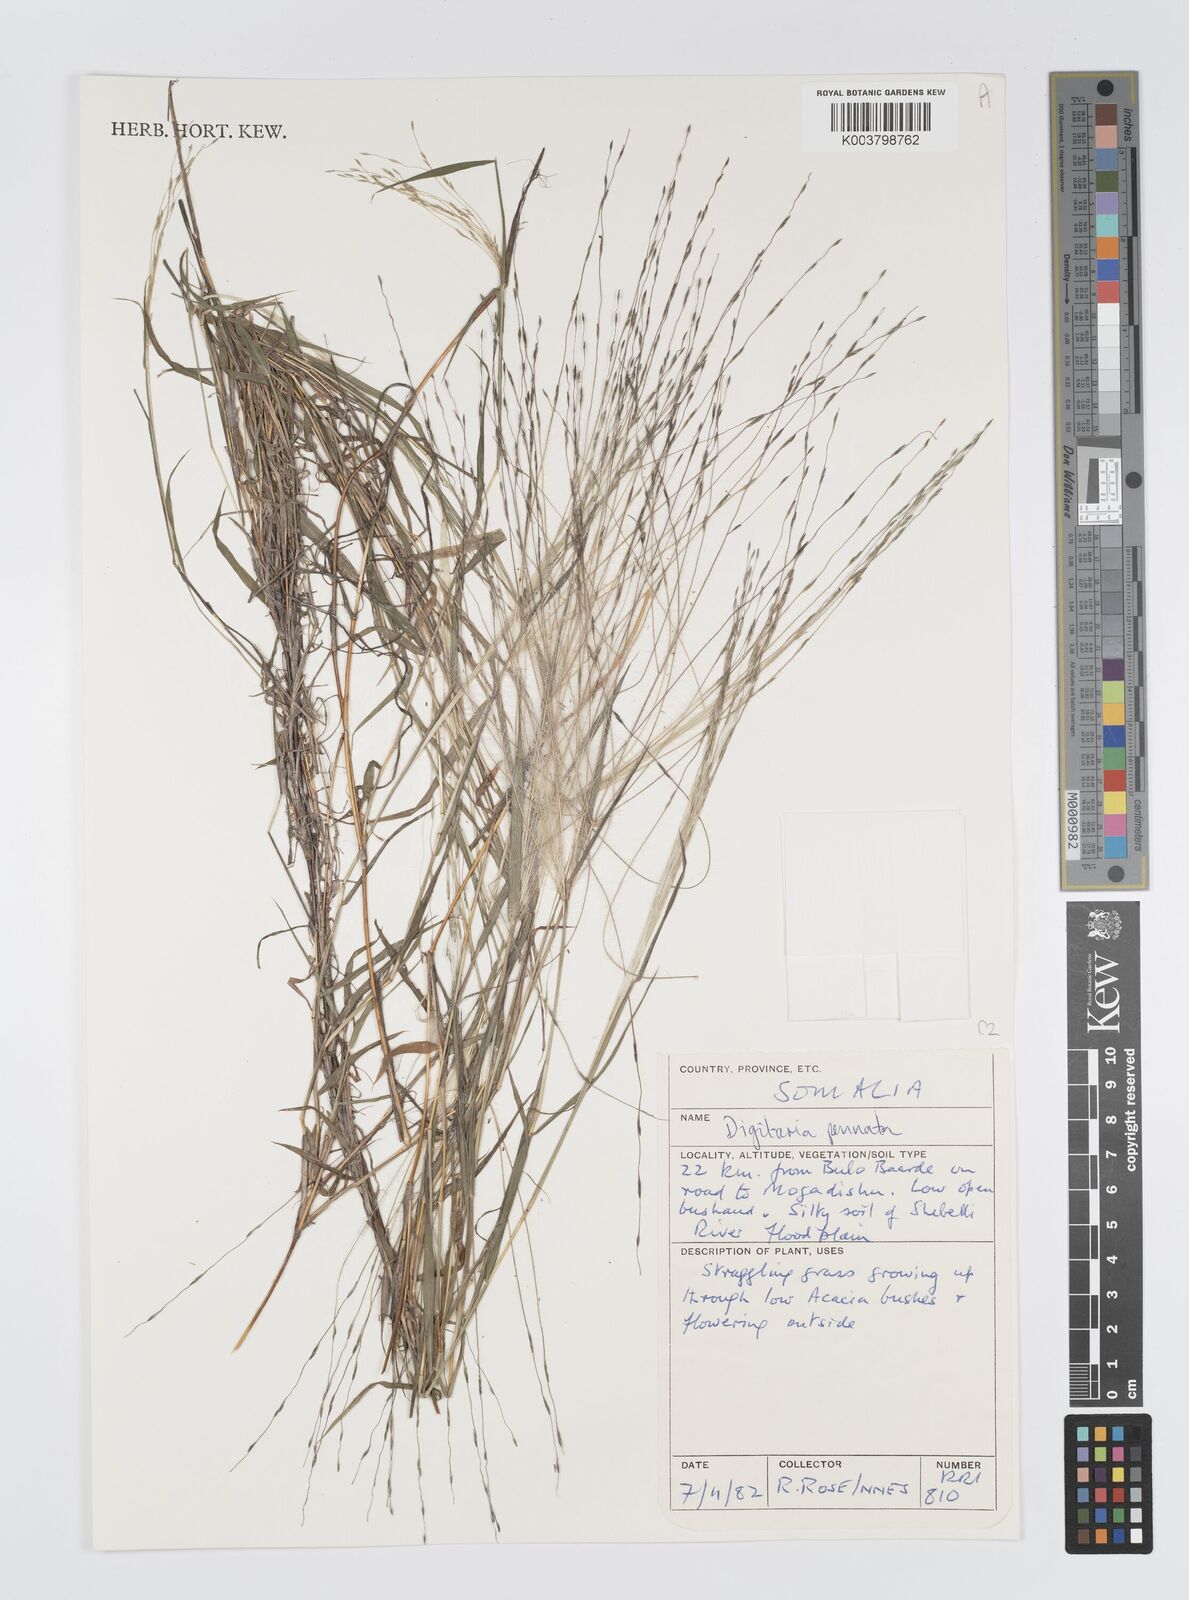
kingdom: Plantae
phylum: Tracheophyta
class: Liliopsida
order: Poales
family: Poaceae
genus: Digitaria
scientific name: Digitaria pennata
